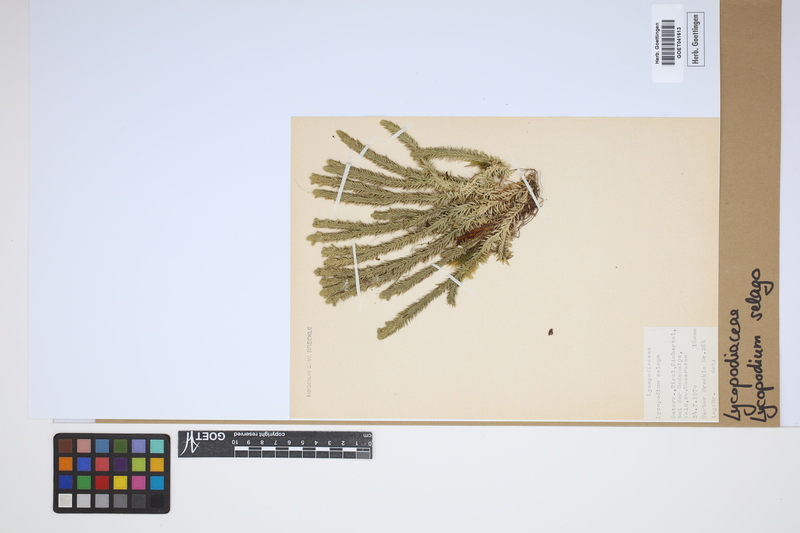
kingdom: Plantae
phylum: Tracheophyta
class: Lycopodiopsida
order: Lycopodiales
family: Lycopodiaceae
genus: Huperzia
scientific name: Huperzia selago
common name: Northern firmoss
